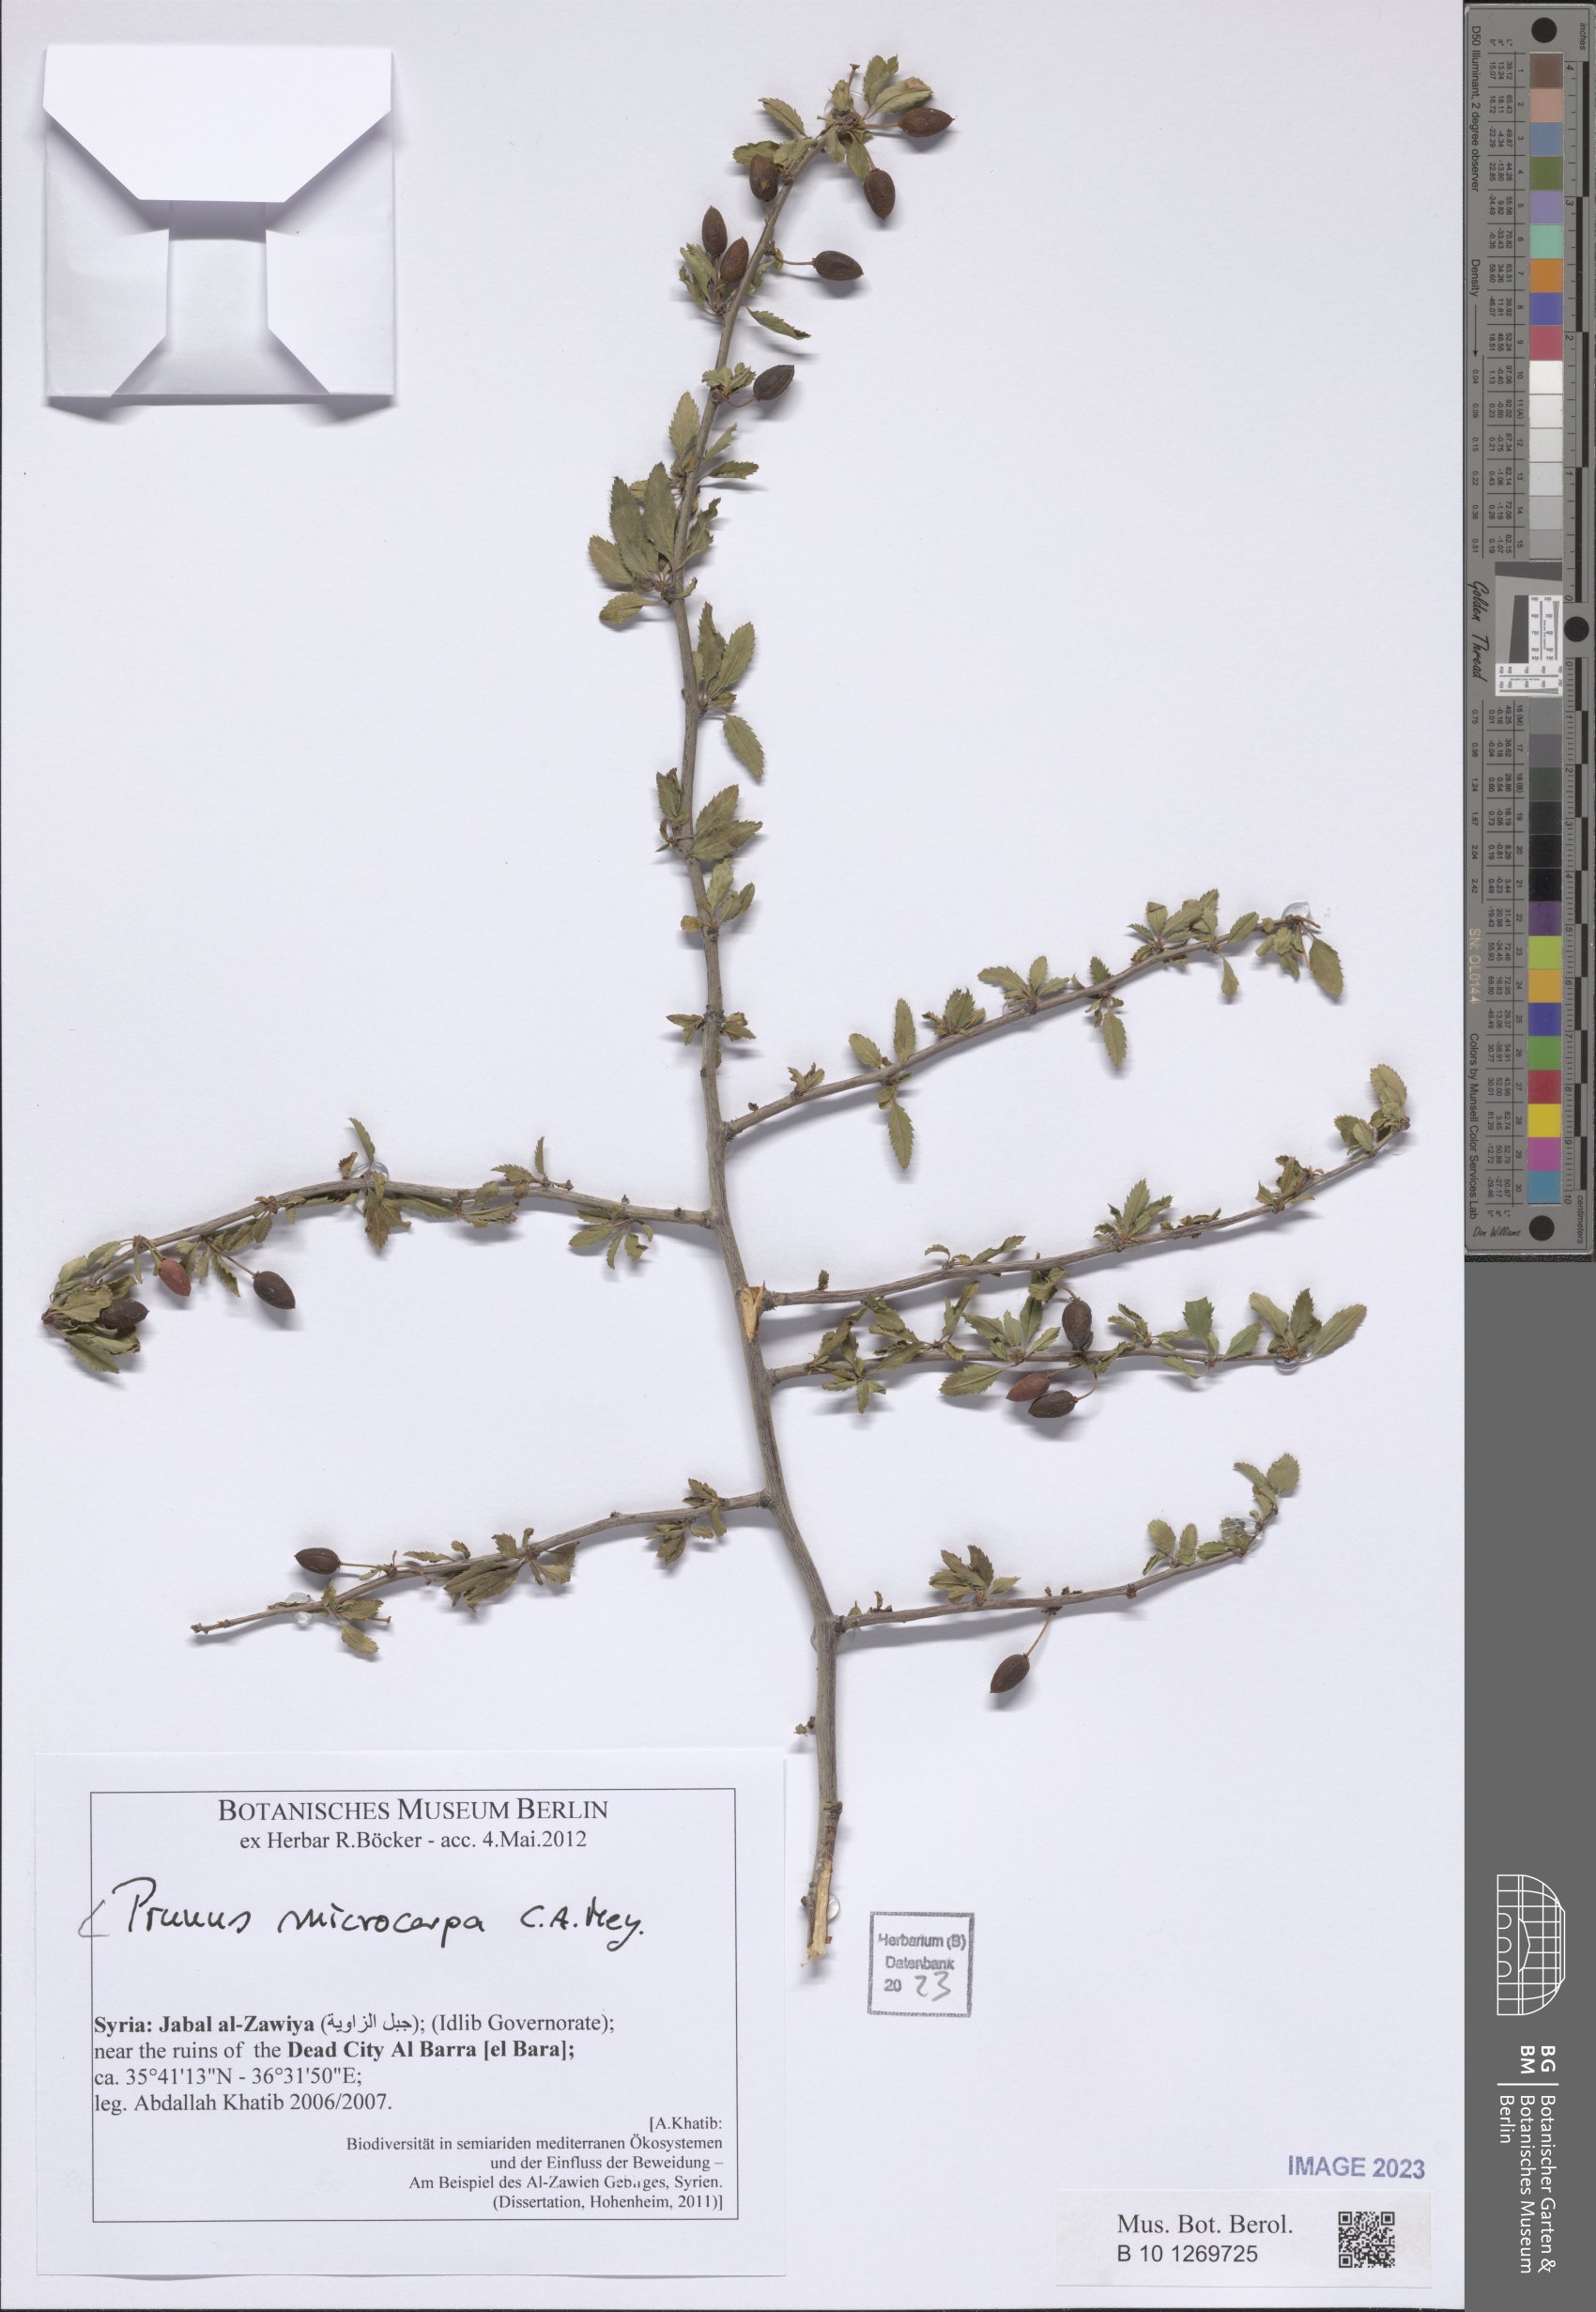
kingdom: Plantae
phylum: Tracheophyta
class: Magnoliopsida
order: Rosales
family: Rosaceae
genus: Prunus
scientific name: Prunus microcarpa
